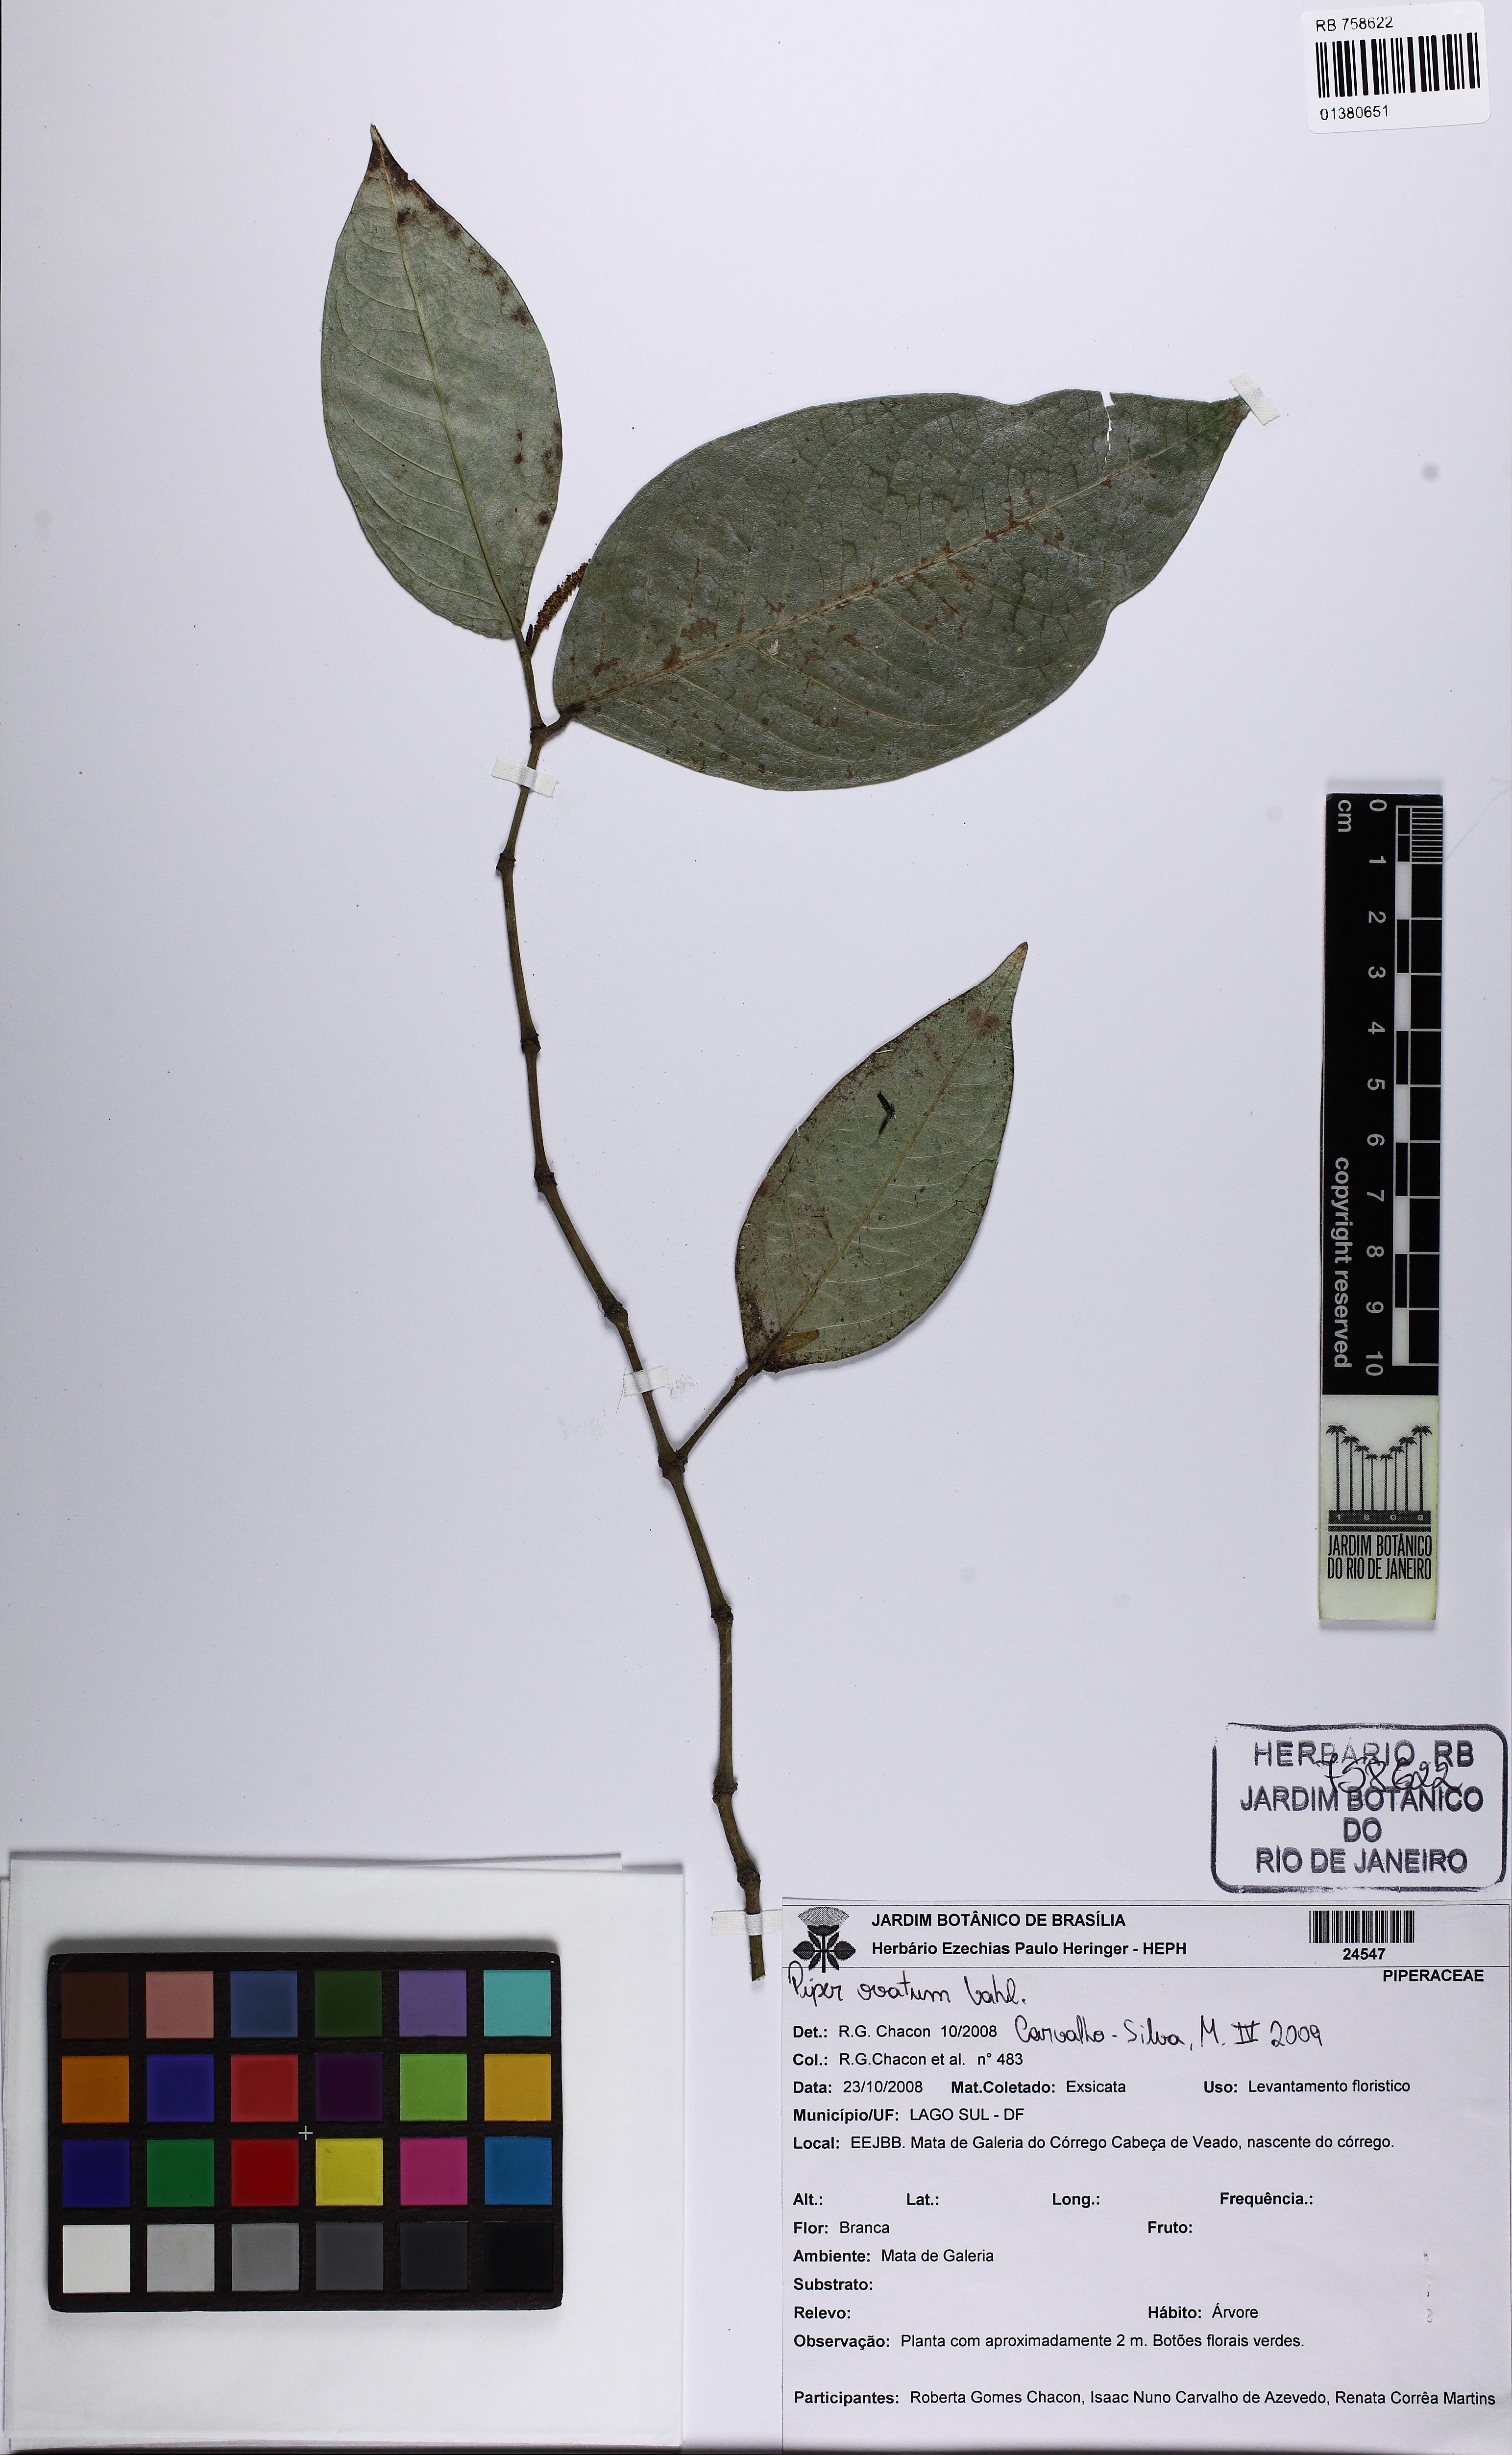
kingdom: Plantae
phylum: Tracheophyta
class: Magnoliopsida
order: Piperales
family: Piperaceae
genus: Piper
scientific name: Piper ovatum
